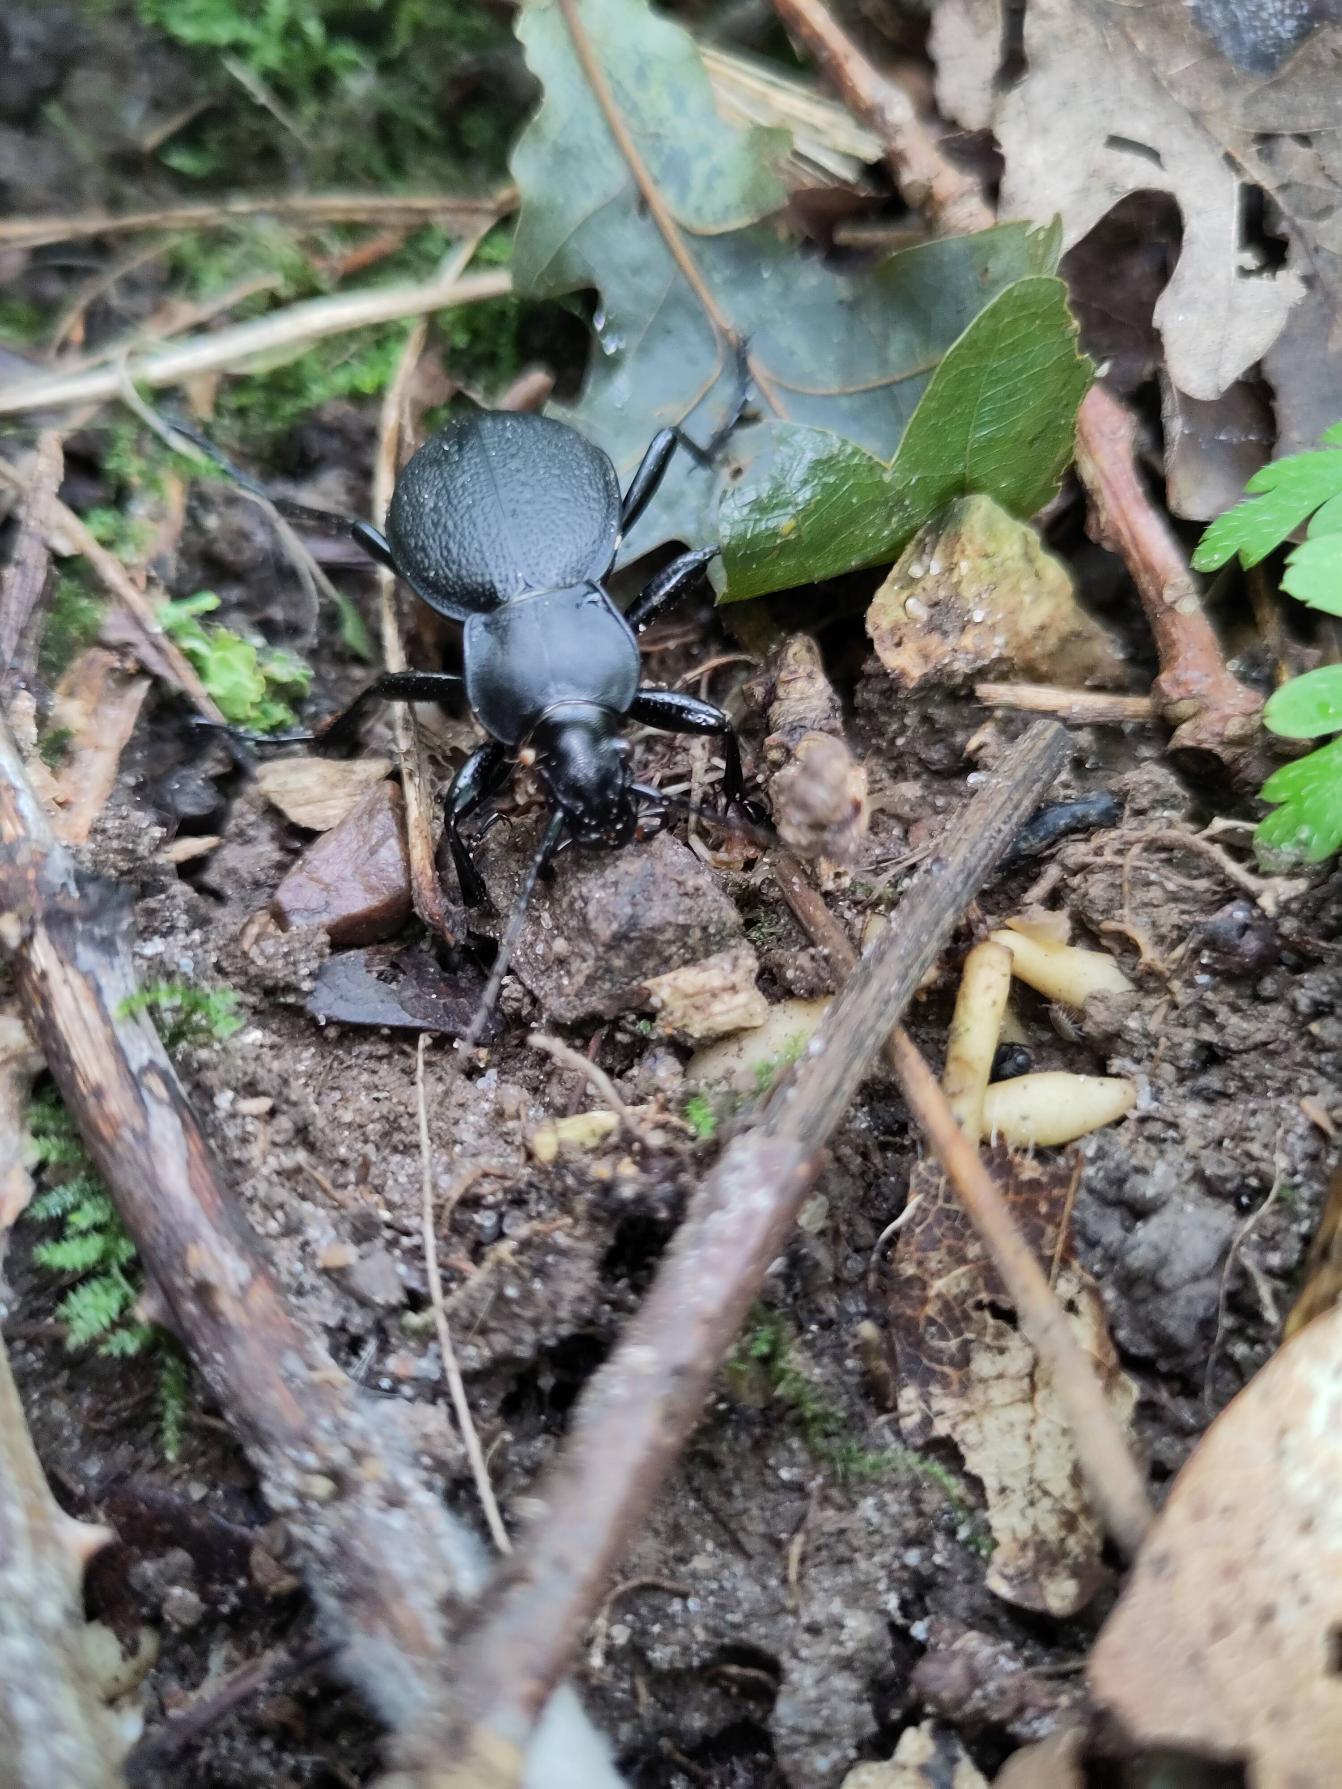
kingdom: Animalia
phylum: Arthropoda
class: Insecta
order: Coleoptera
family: Carabidae
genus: Carabus
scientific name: Carabus coriaceus
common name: Læderløber
